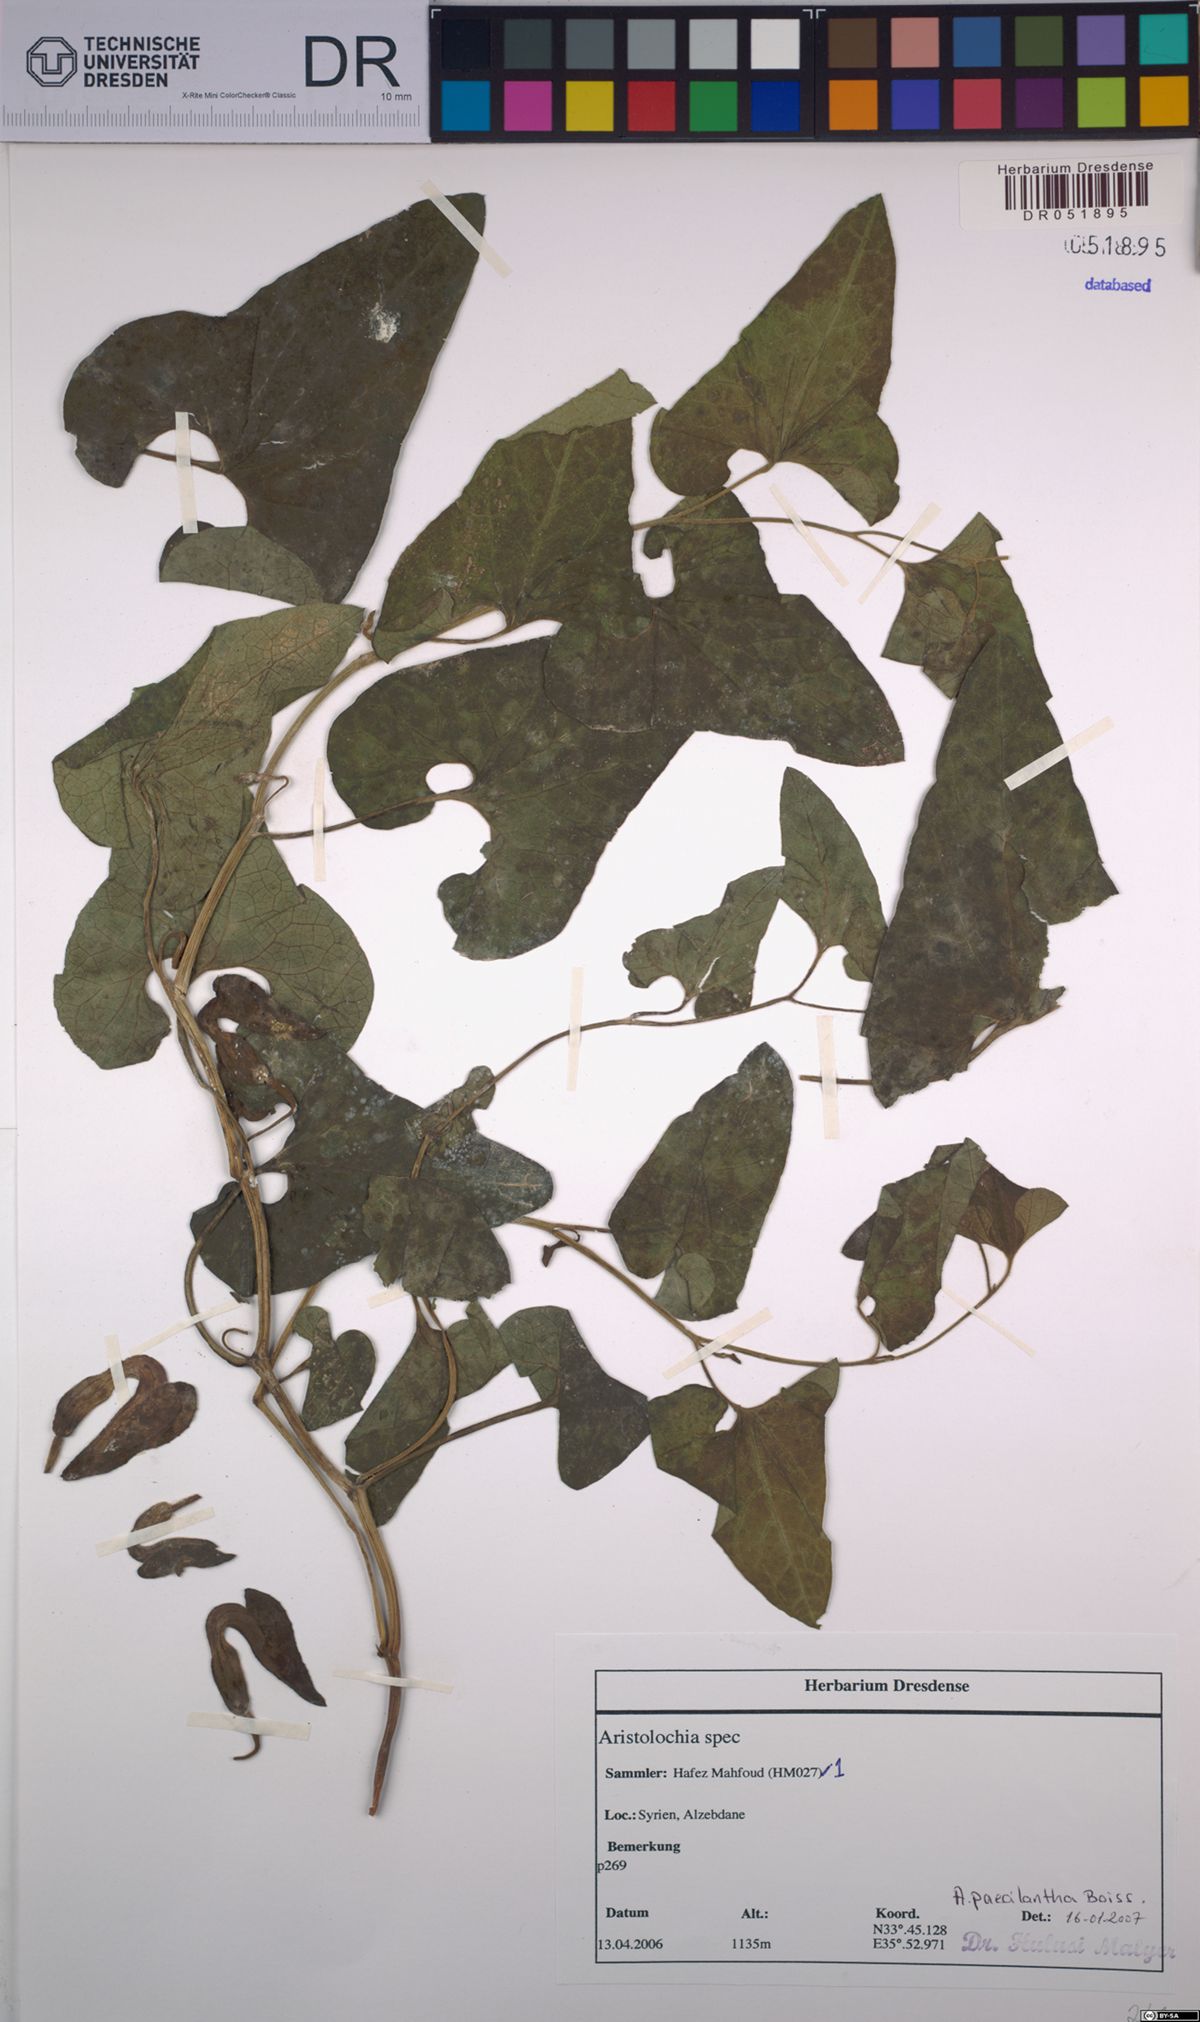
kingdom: Plantae
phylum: Tracheophyta
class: Magnoliopsida
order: Piperales
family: Aristolochiaceae
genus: Aristolochia
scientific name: Aristolochia paecilantha
